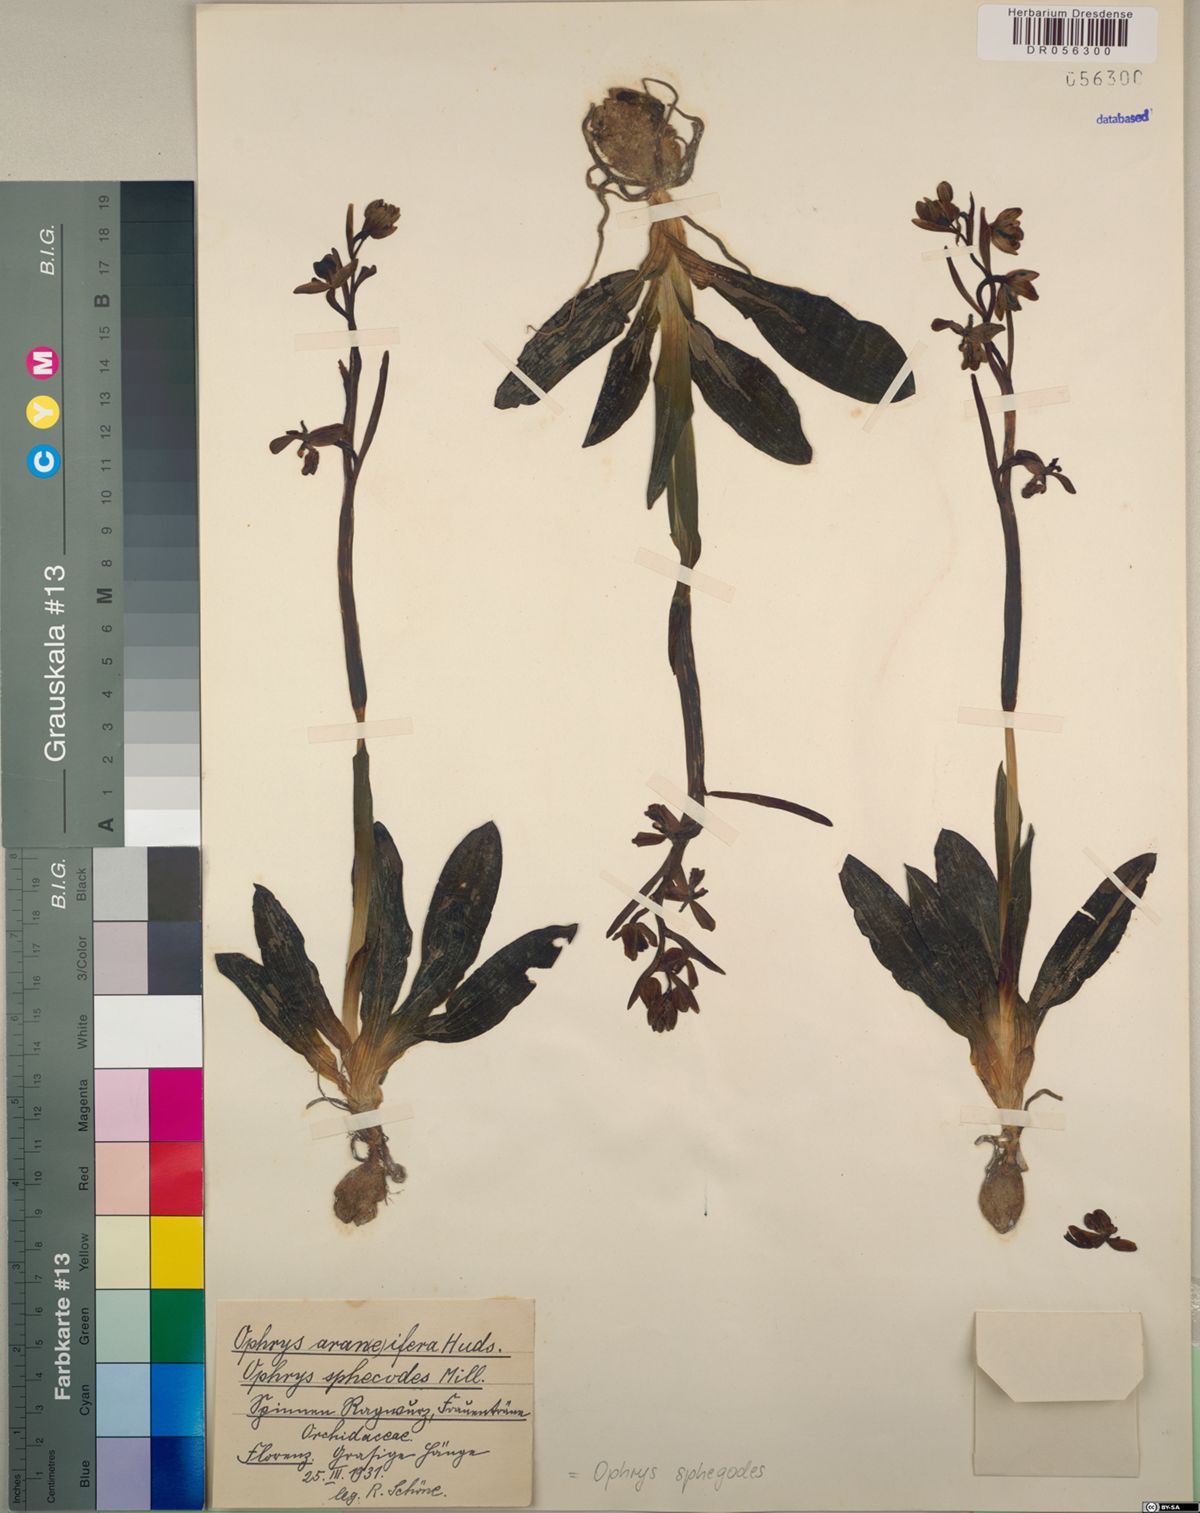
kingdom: Plantae
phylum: Tracheophyta
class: Liliopsida
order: Asparagales
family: Orchidaceae
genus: Ophrys
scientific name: Ophrys sphegodes
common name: Early spider-orchid
